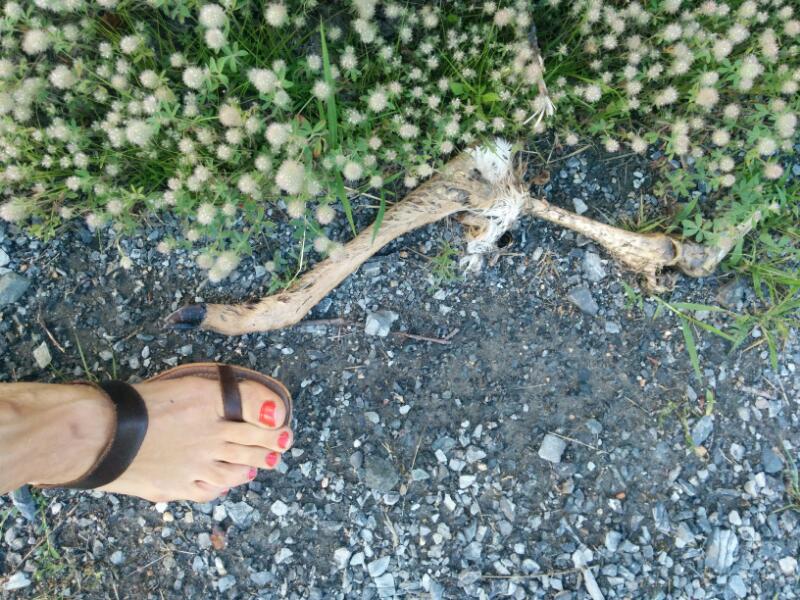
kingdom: Animalia
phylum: Chordata
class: Mammalia
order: Artiodactyla
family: Cervidae
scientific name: Cervidae
